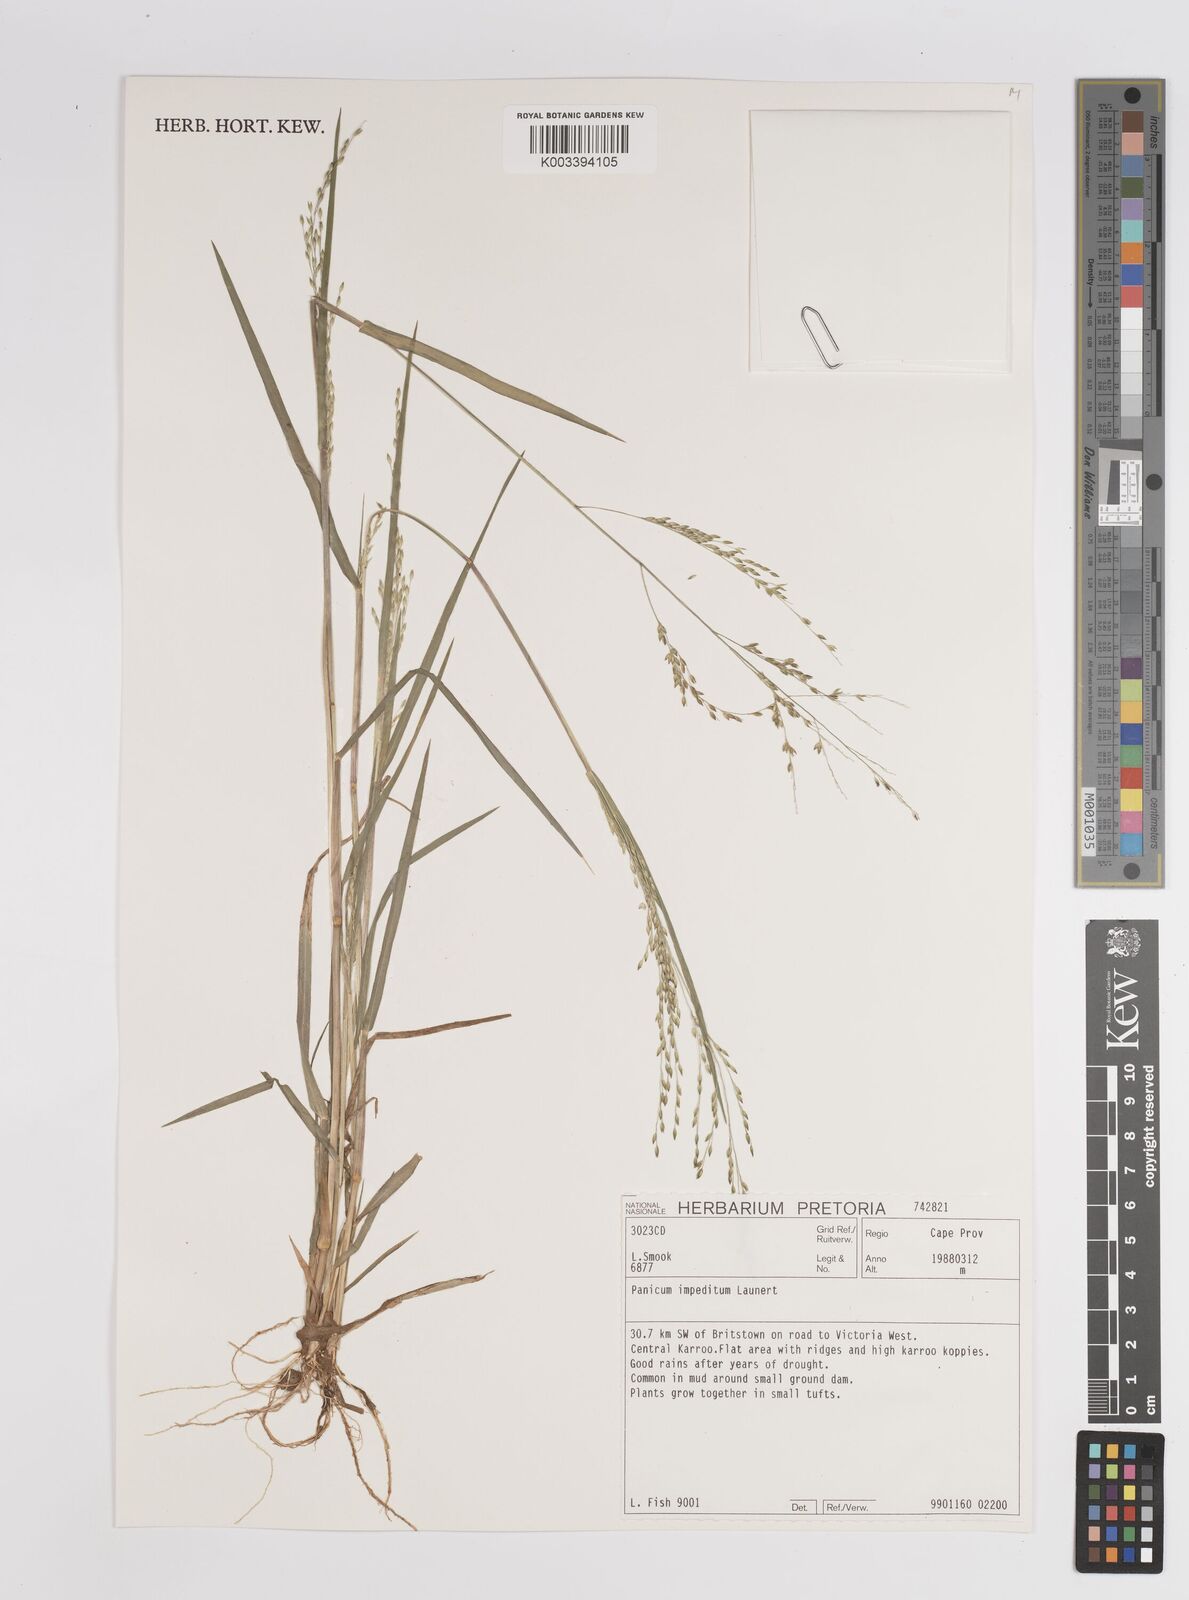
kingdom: Plantae
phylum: Tracheophyta
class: Liliopsida
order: Poales
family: Poaceae
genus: Panicum
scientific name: Panicum impeditum
